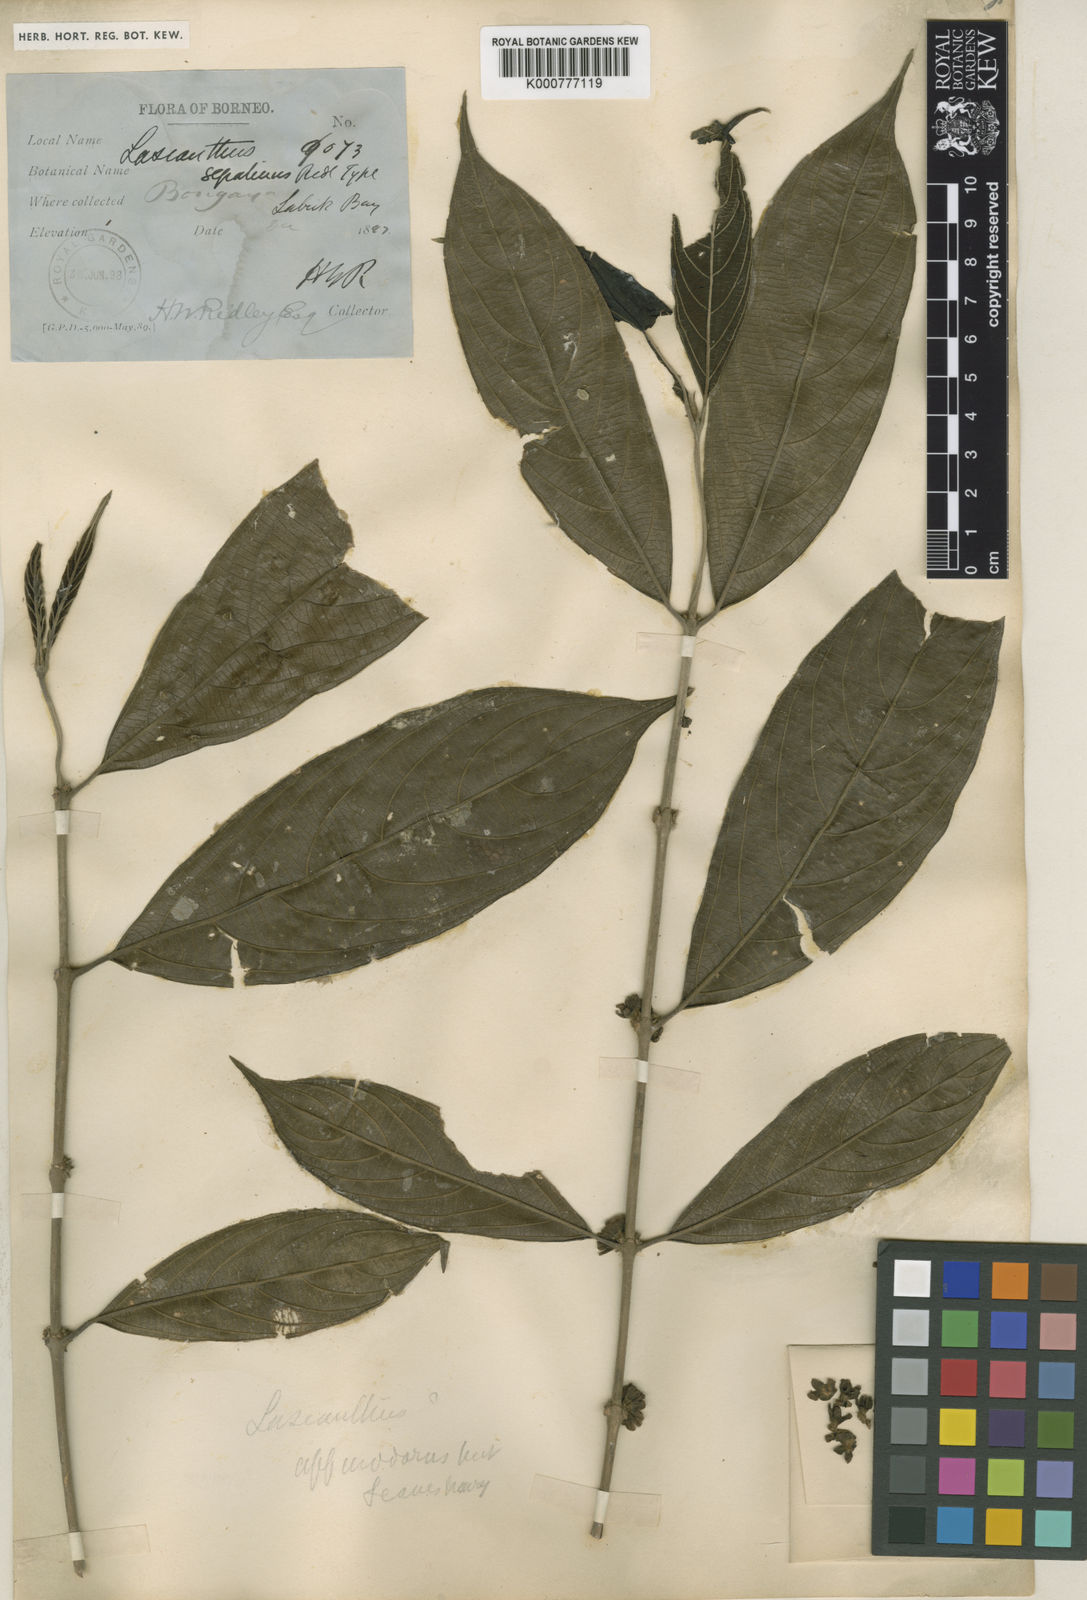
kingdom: Plantae
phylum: Tracheophyta
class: Magnoliopsida
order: Gentianales
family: Rubiaceae
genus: Lasianthus
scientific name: Lasianthus borneensis
